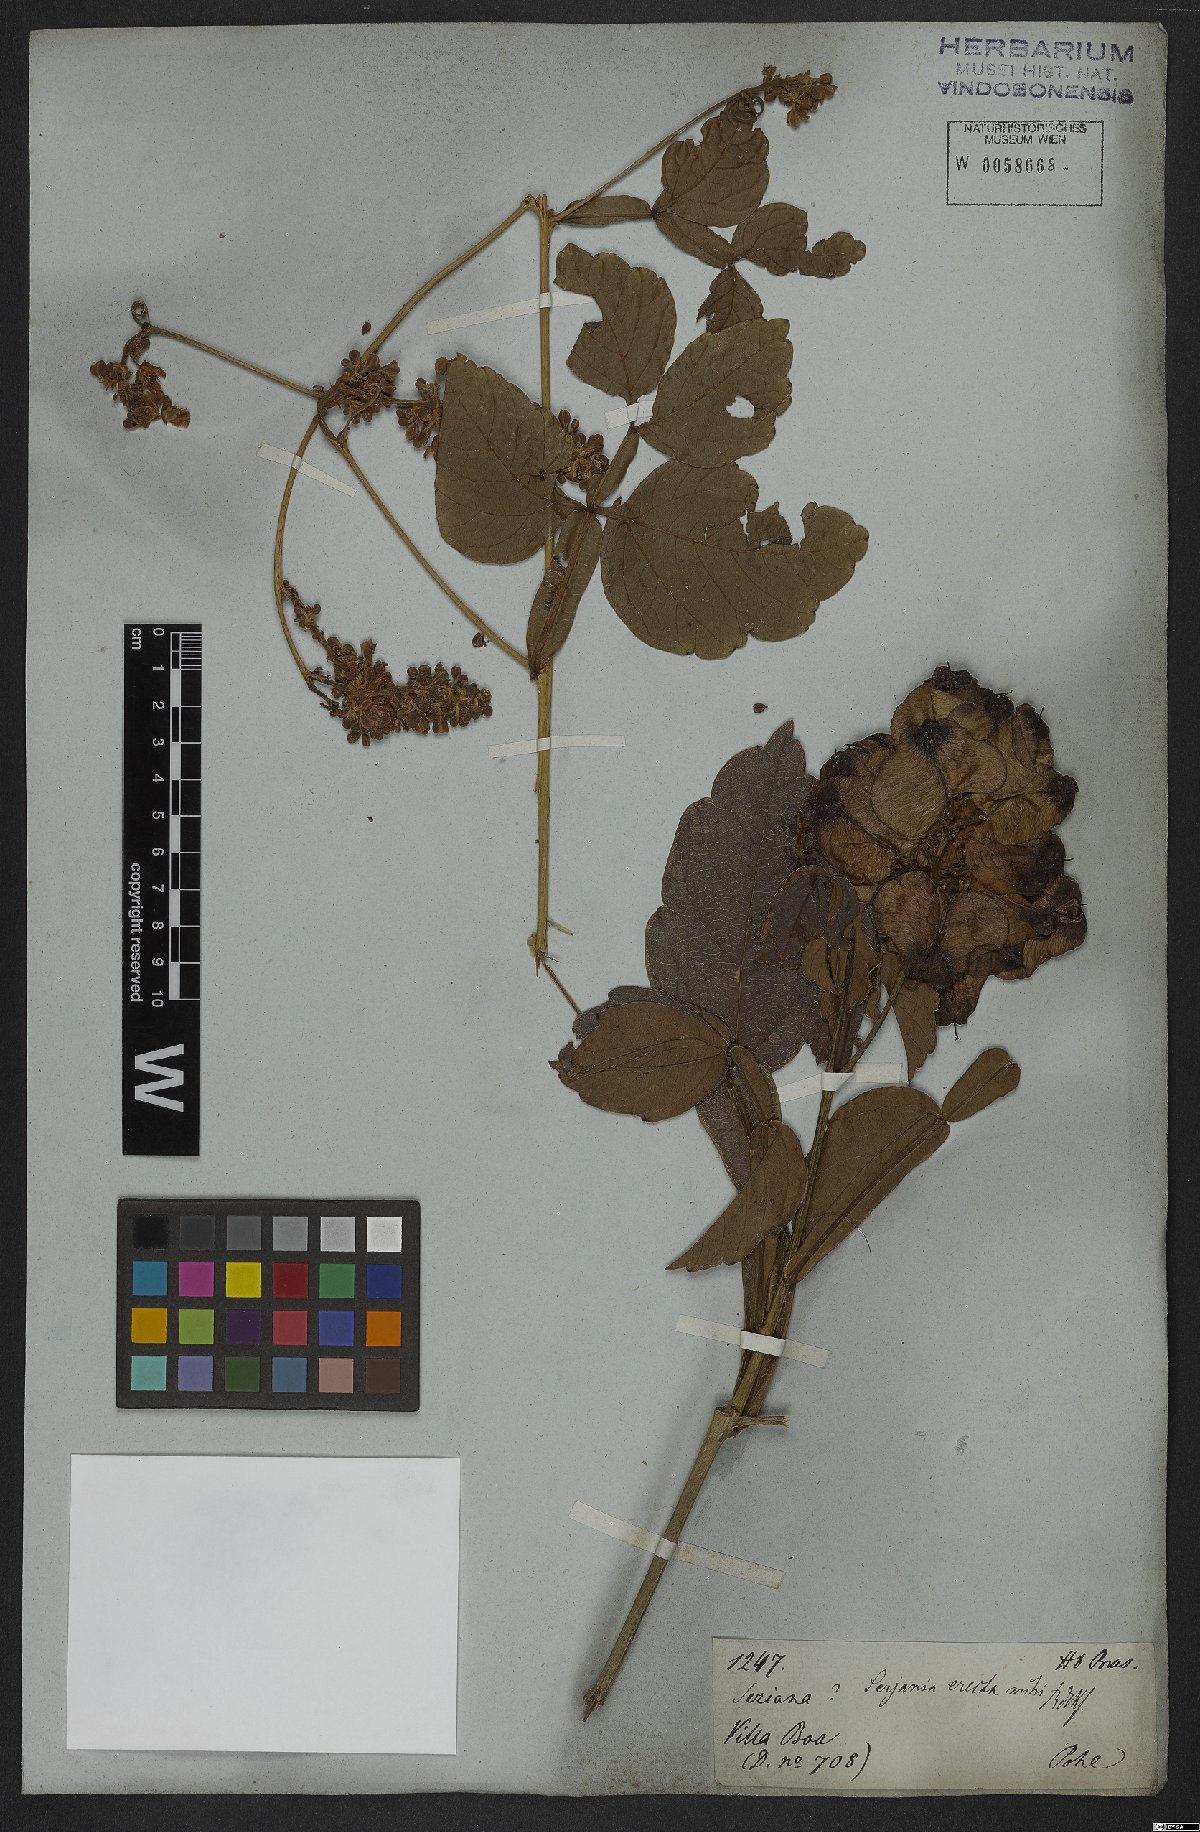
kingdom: Plantae
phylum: Tracheophyta
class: Magnoliopsida
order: Sapindales
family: Sapindaceae
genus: Serjania
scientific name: Serjania erecta
